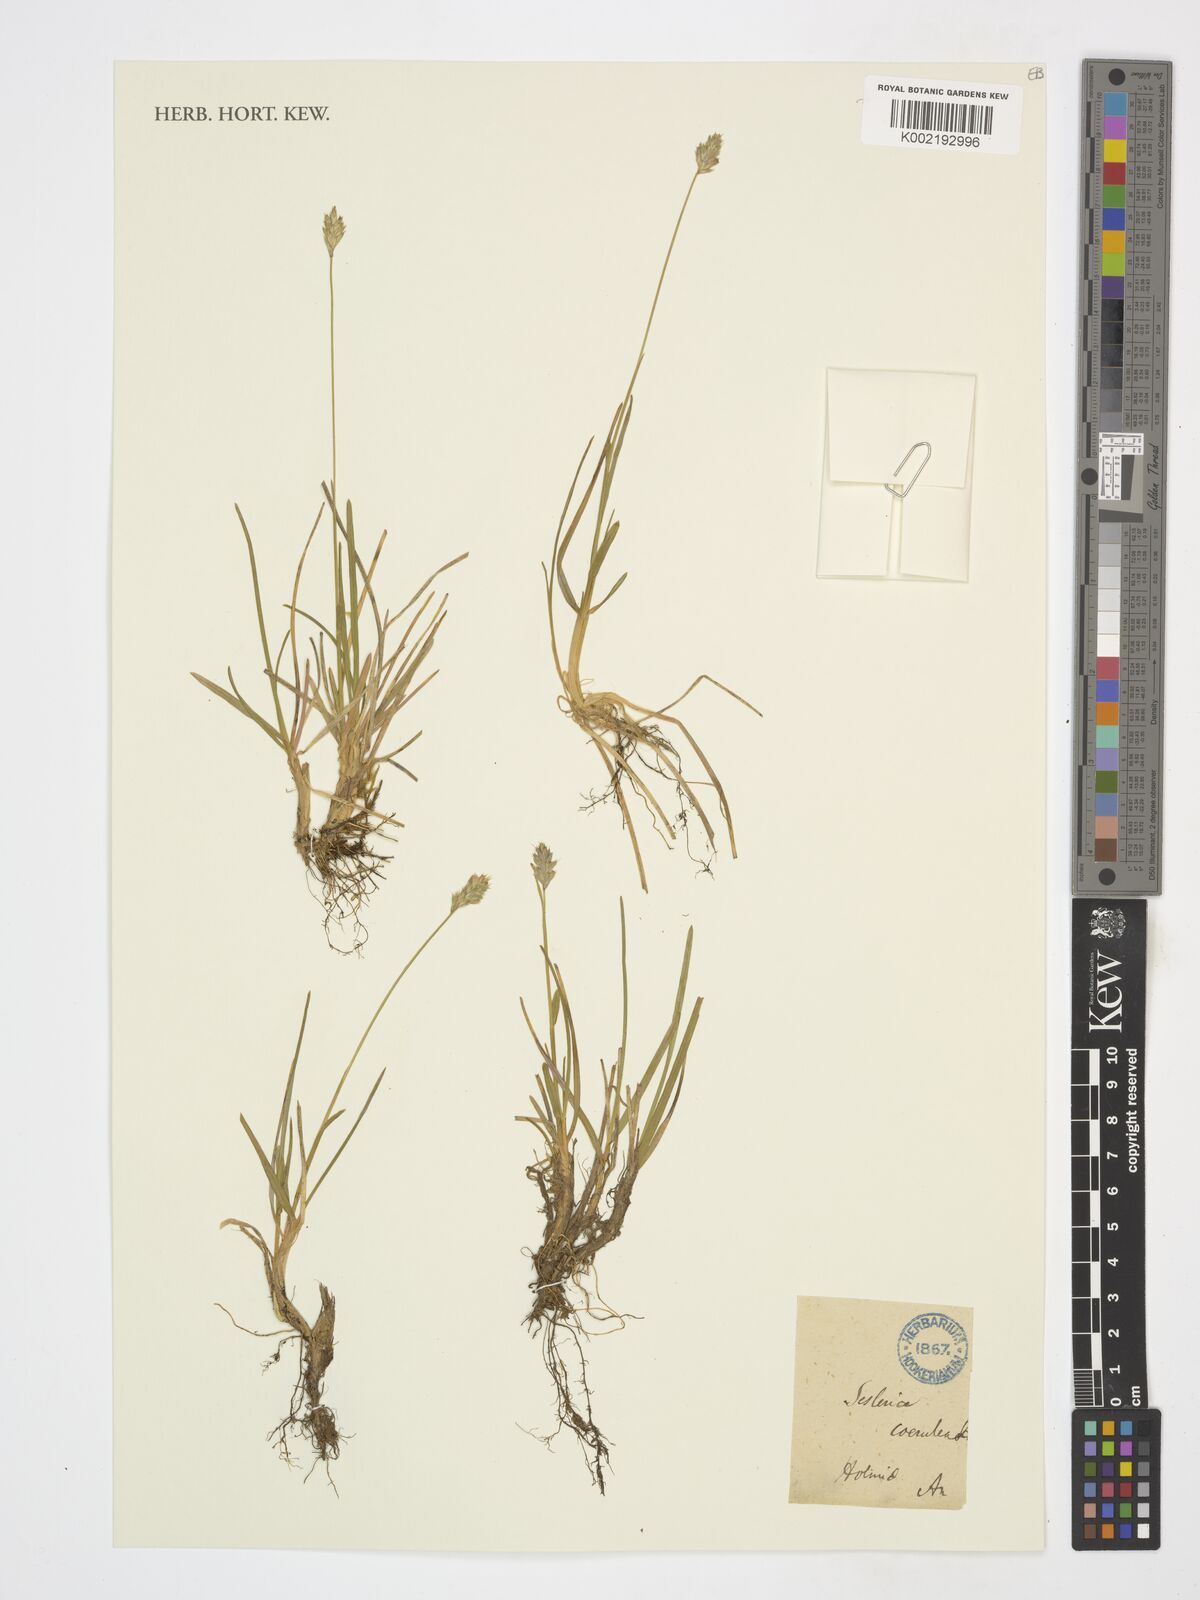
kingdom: Plantae
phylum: Tracheophyta
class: Liliopsida
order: Poales
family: Poaceae
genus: Sesleria
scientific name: Sesleria caerulea
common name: Blue moor-grass
